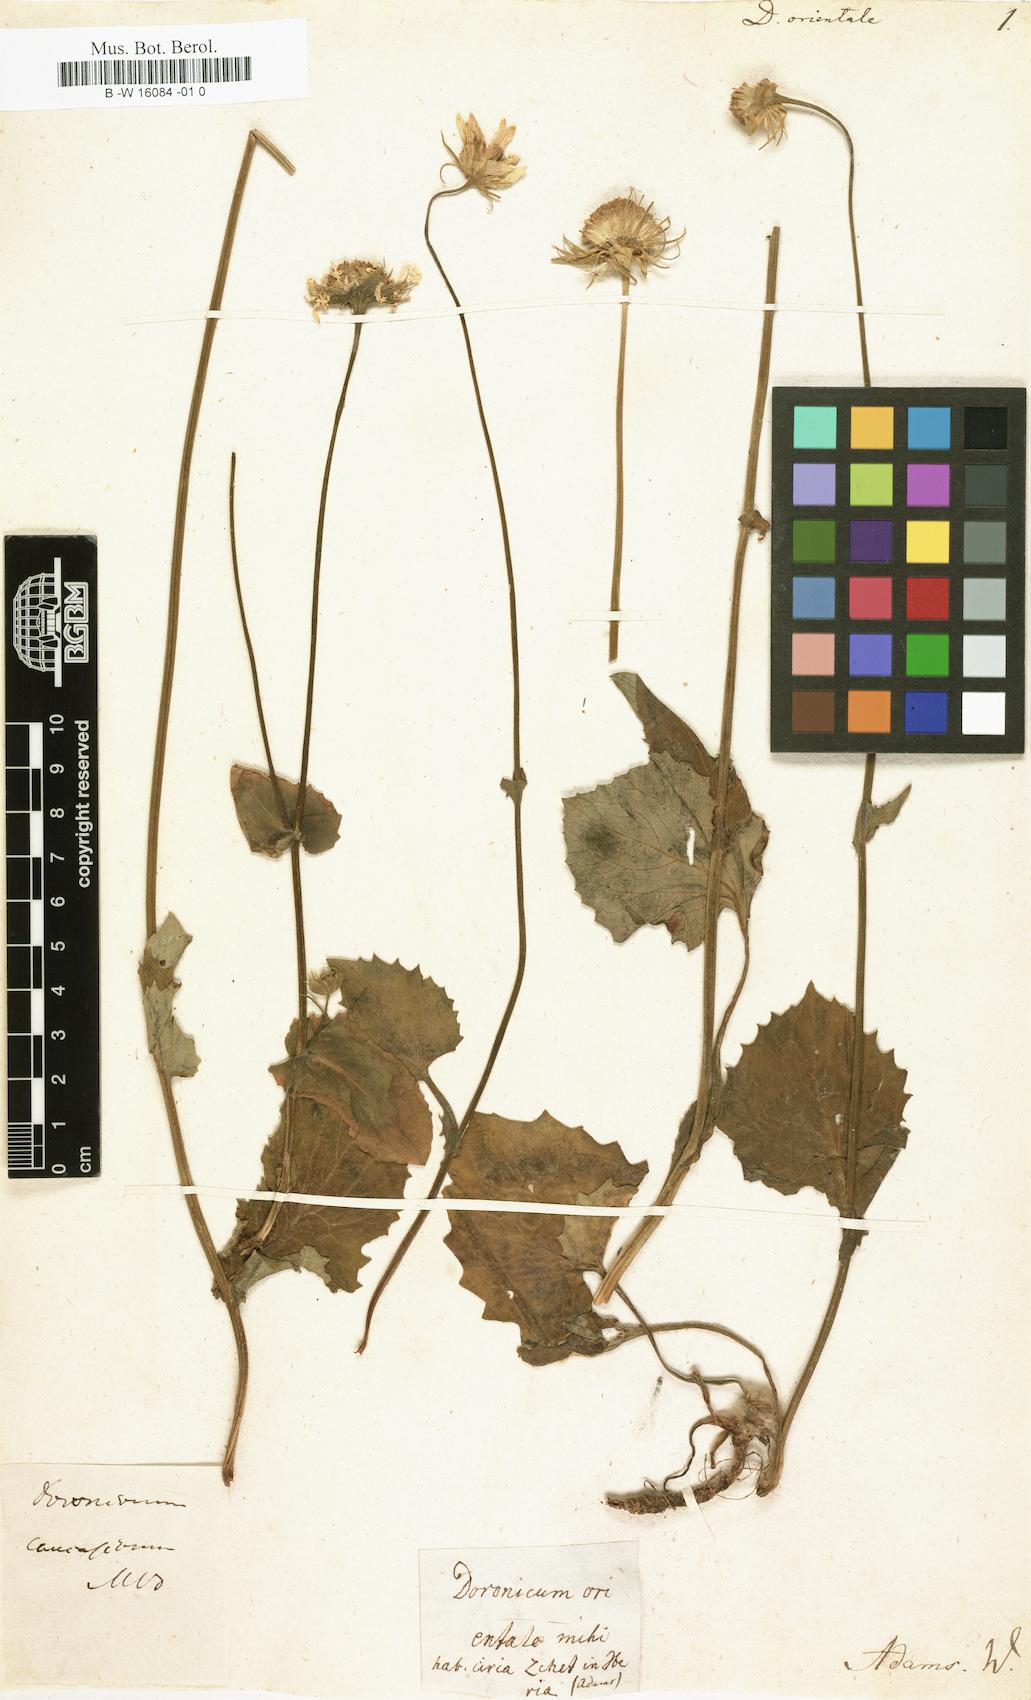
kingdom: Plantae
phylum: Tracheophyta
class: Magnoliopsida
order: Asterales
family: Asteraceae
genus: Doronicum
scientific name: Doronicum orientale
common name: Oriental leopard's-bane
